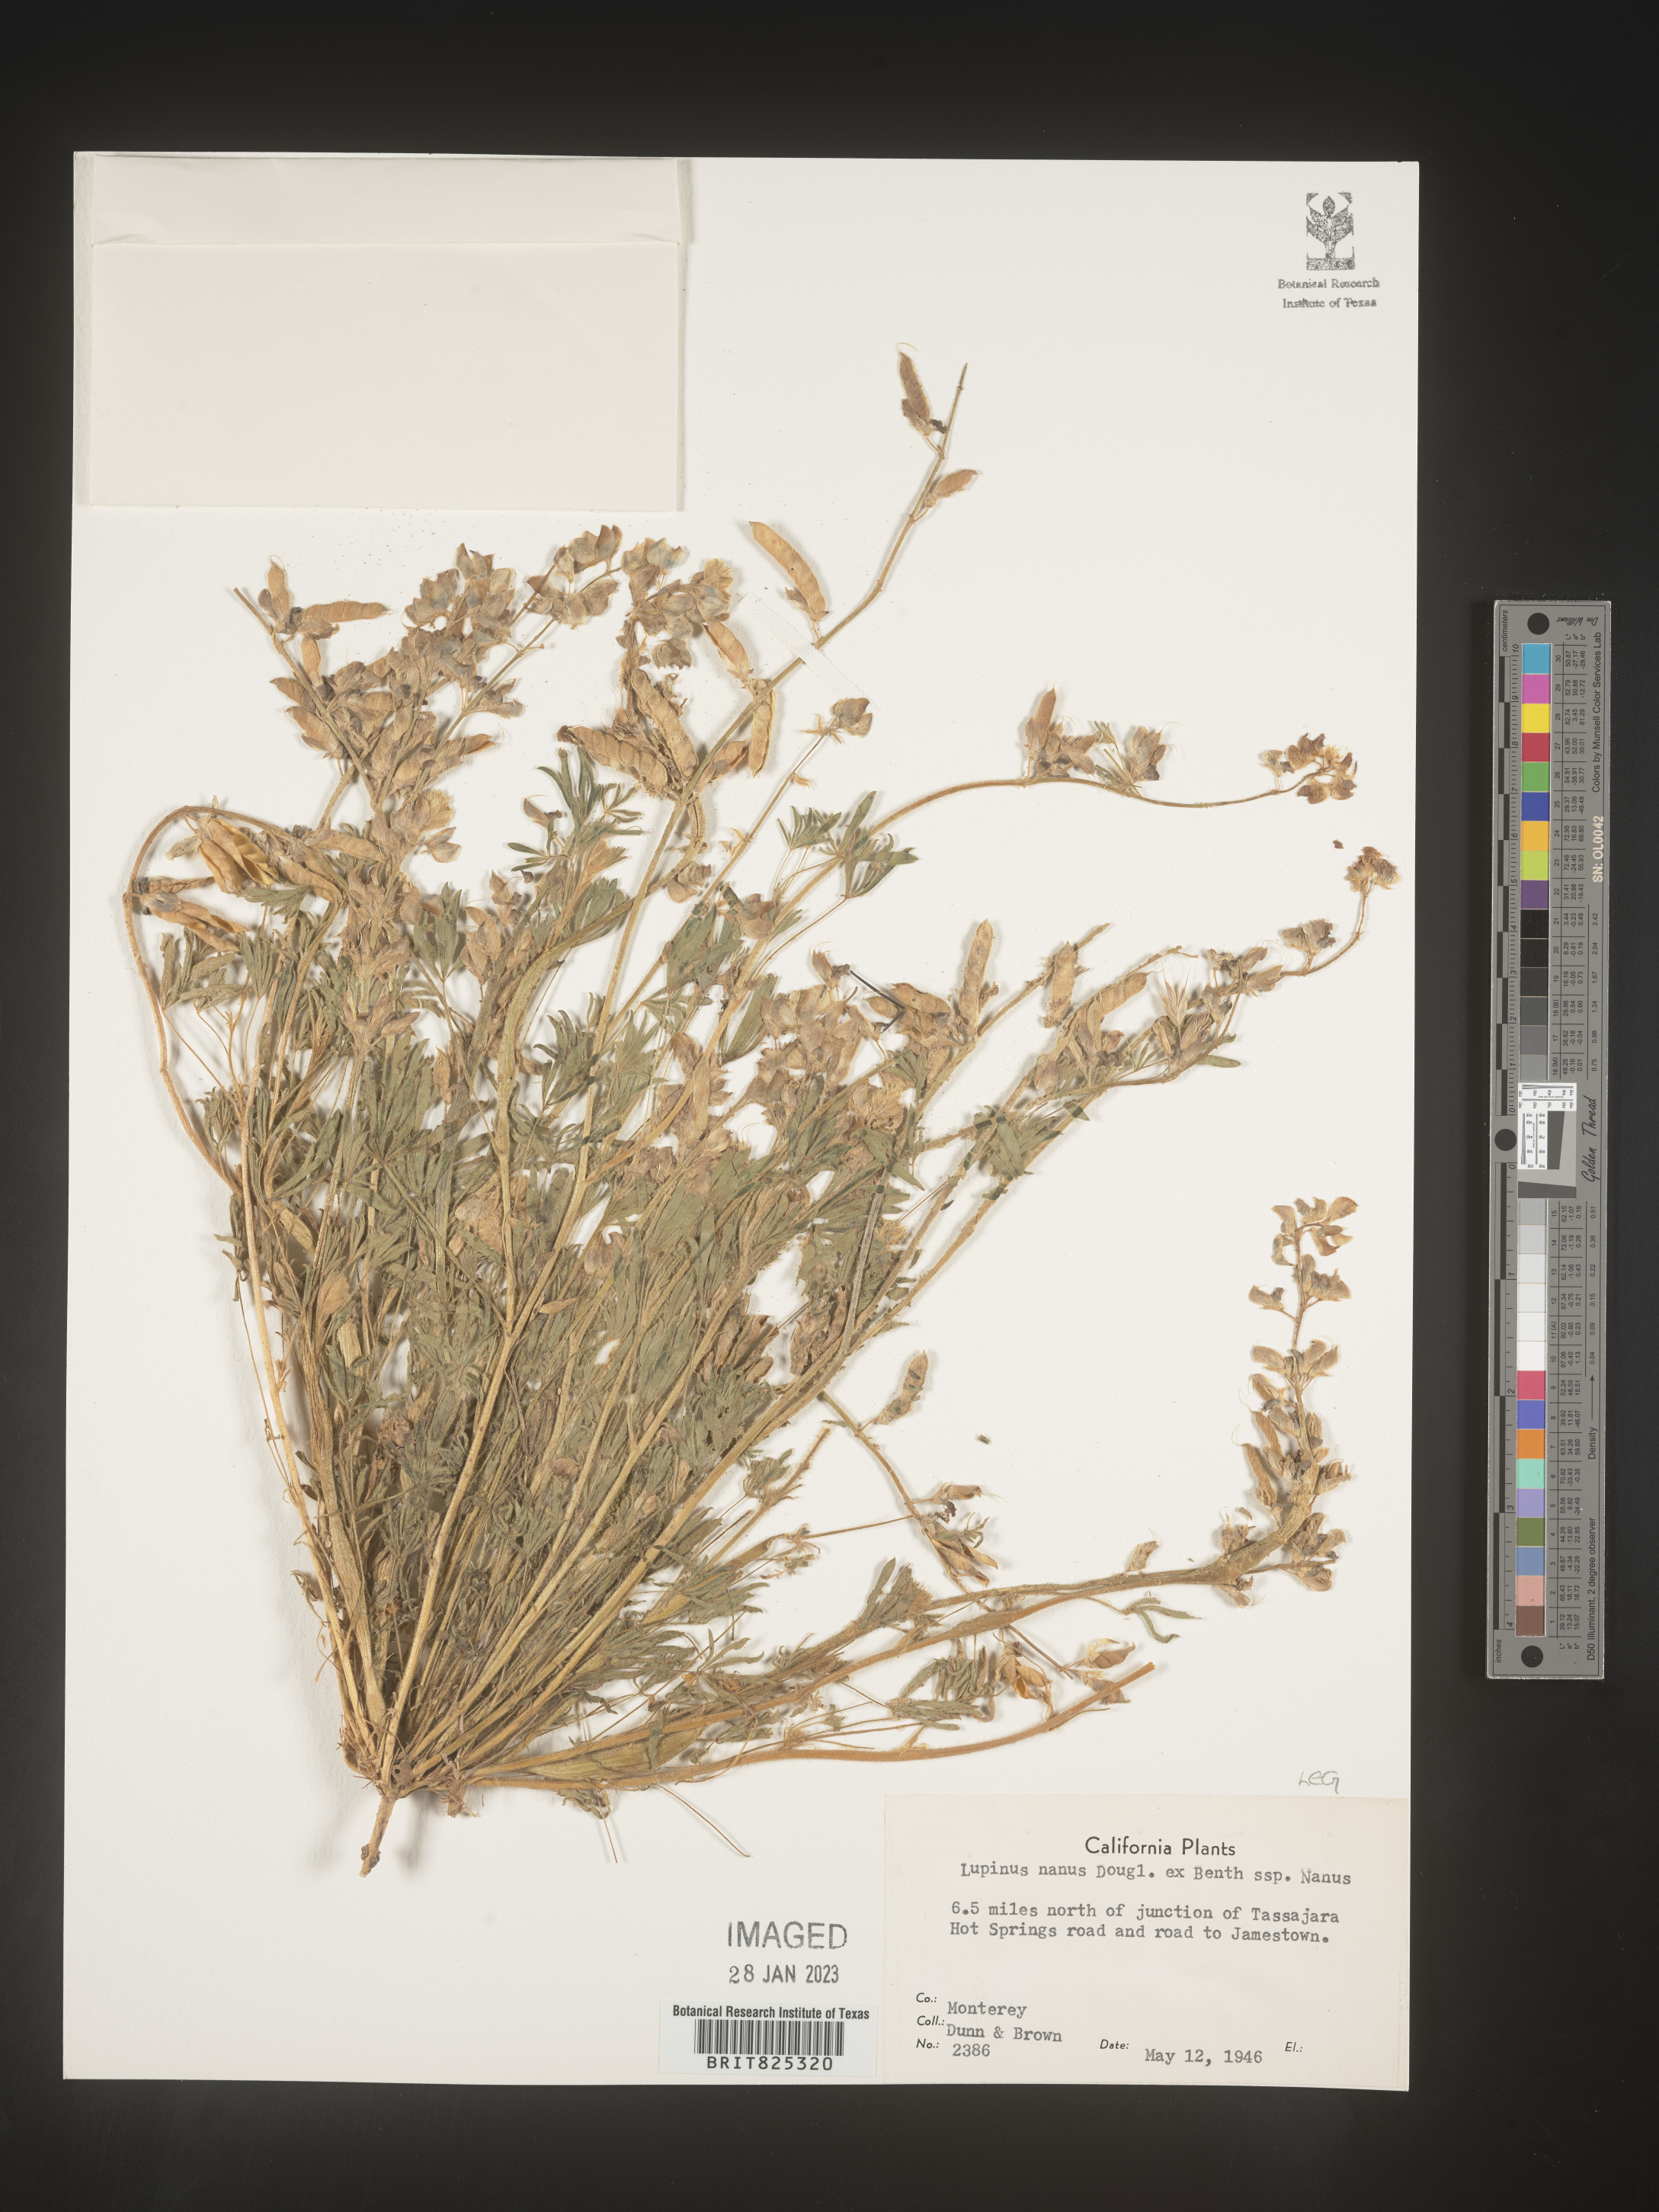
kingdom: Plantae
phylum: Tracheophyta
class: Magnoliopsida
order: Fabales
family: Fabaceae
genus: Lupinus
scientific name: Lupinus nanus
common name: Orean blue lupin
